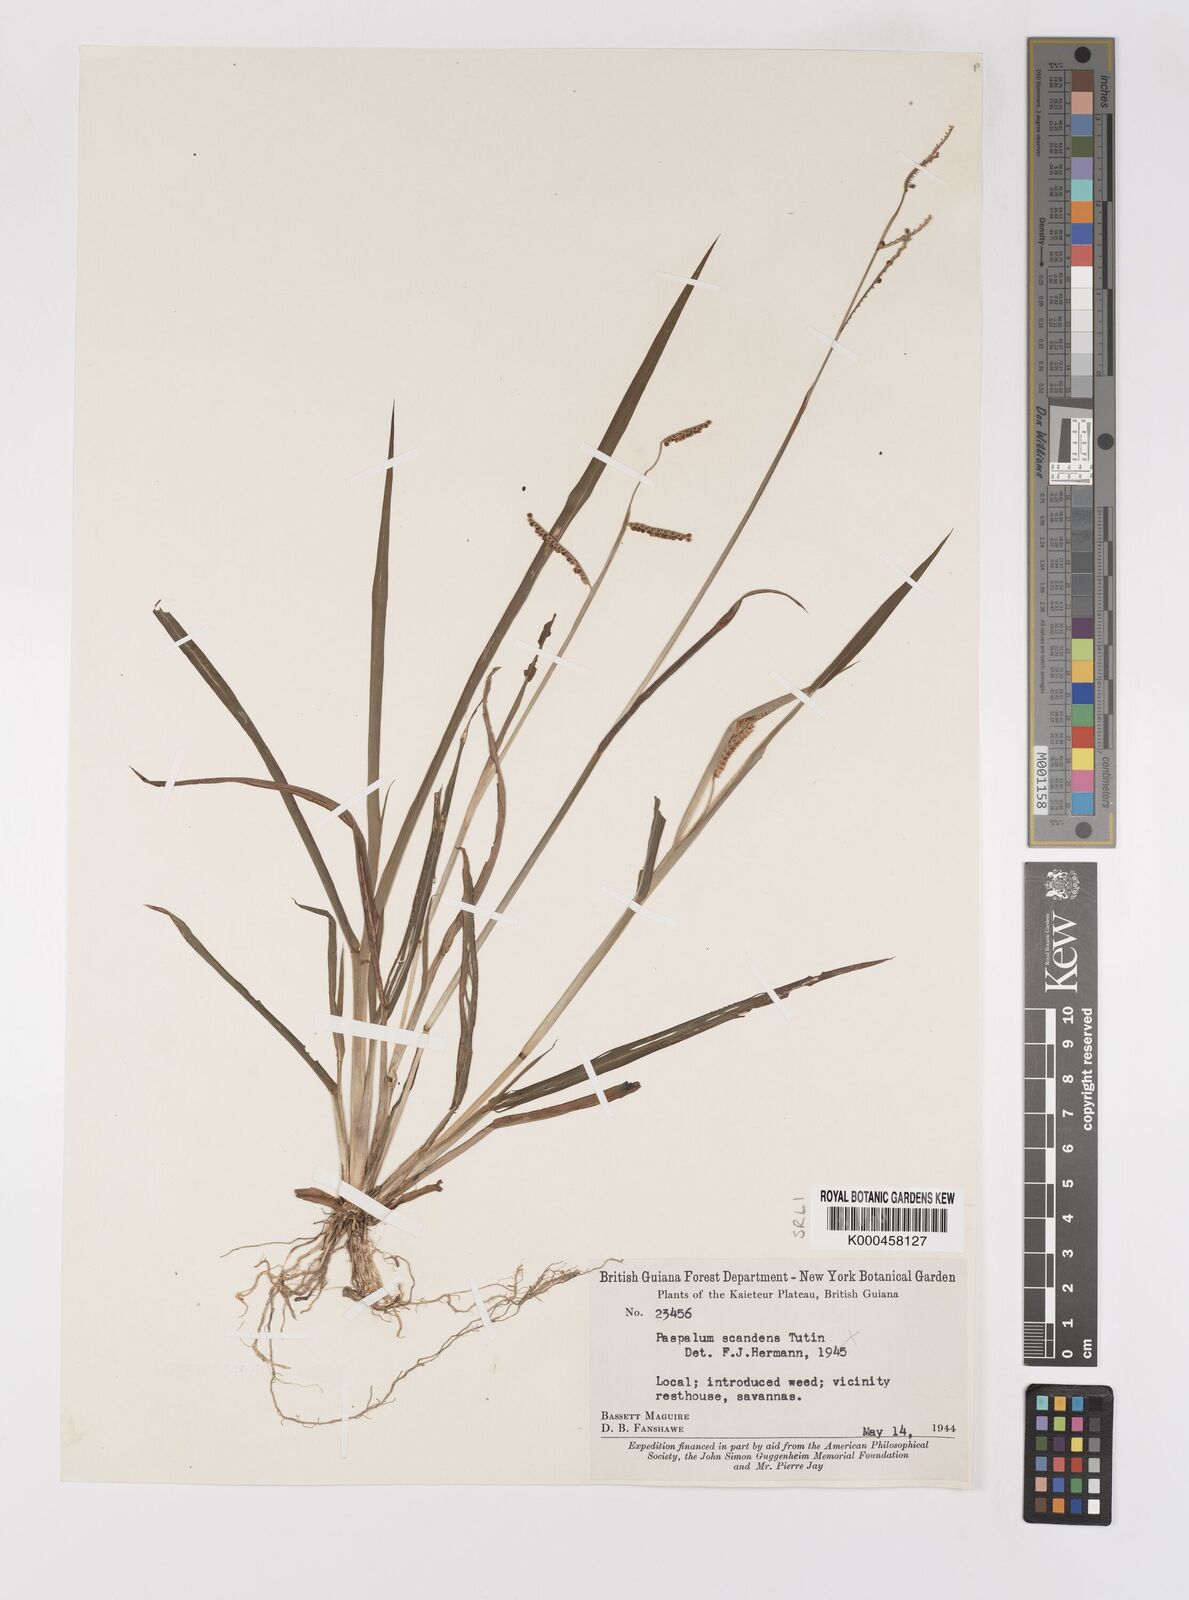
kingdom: Plantae
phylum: Tracheophyta
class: Liliopsida
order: Poales
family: Poaceae
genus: Paspalum
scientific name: Paspalum
